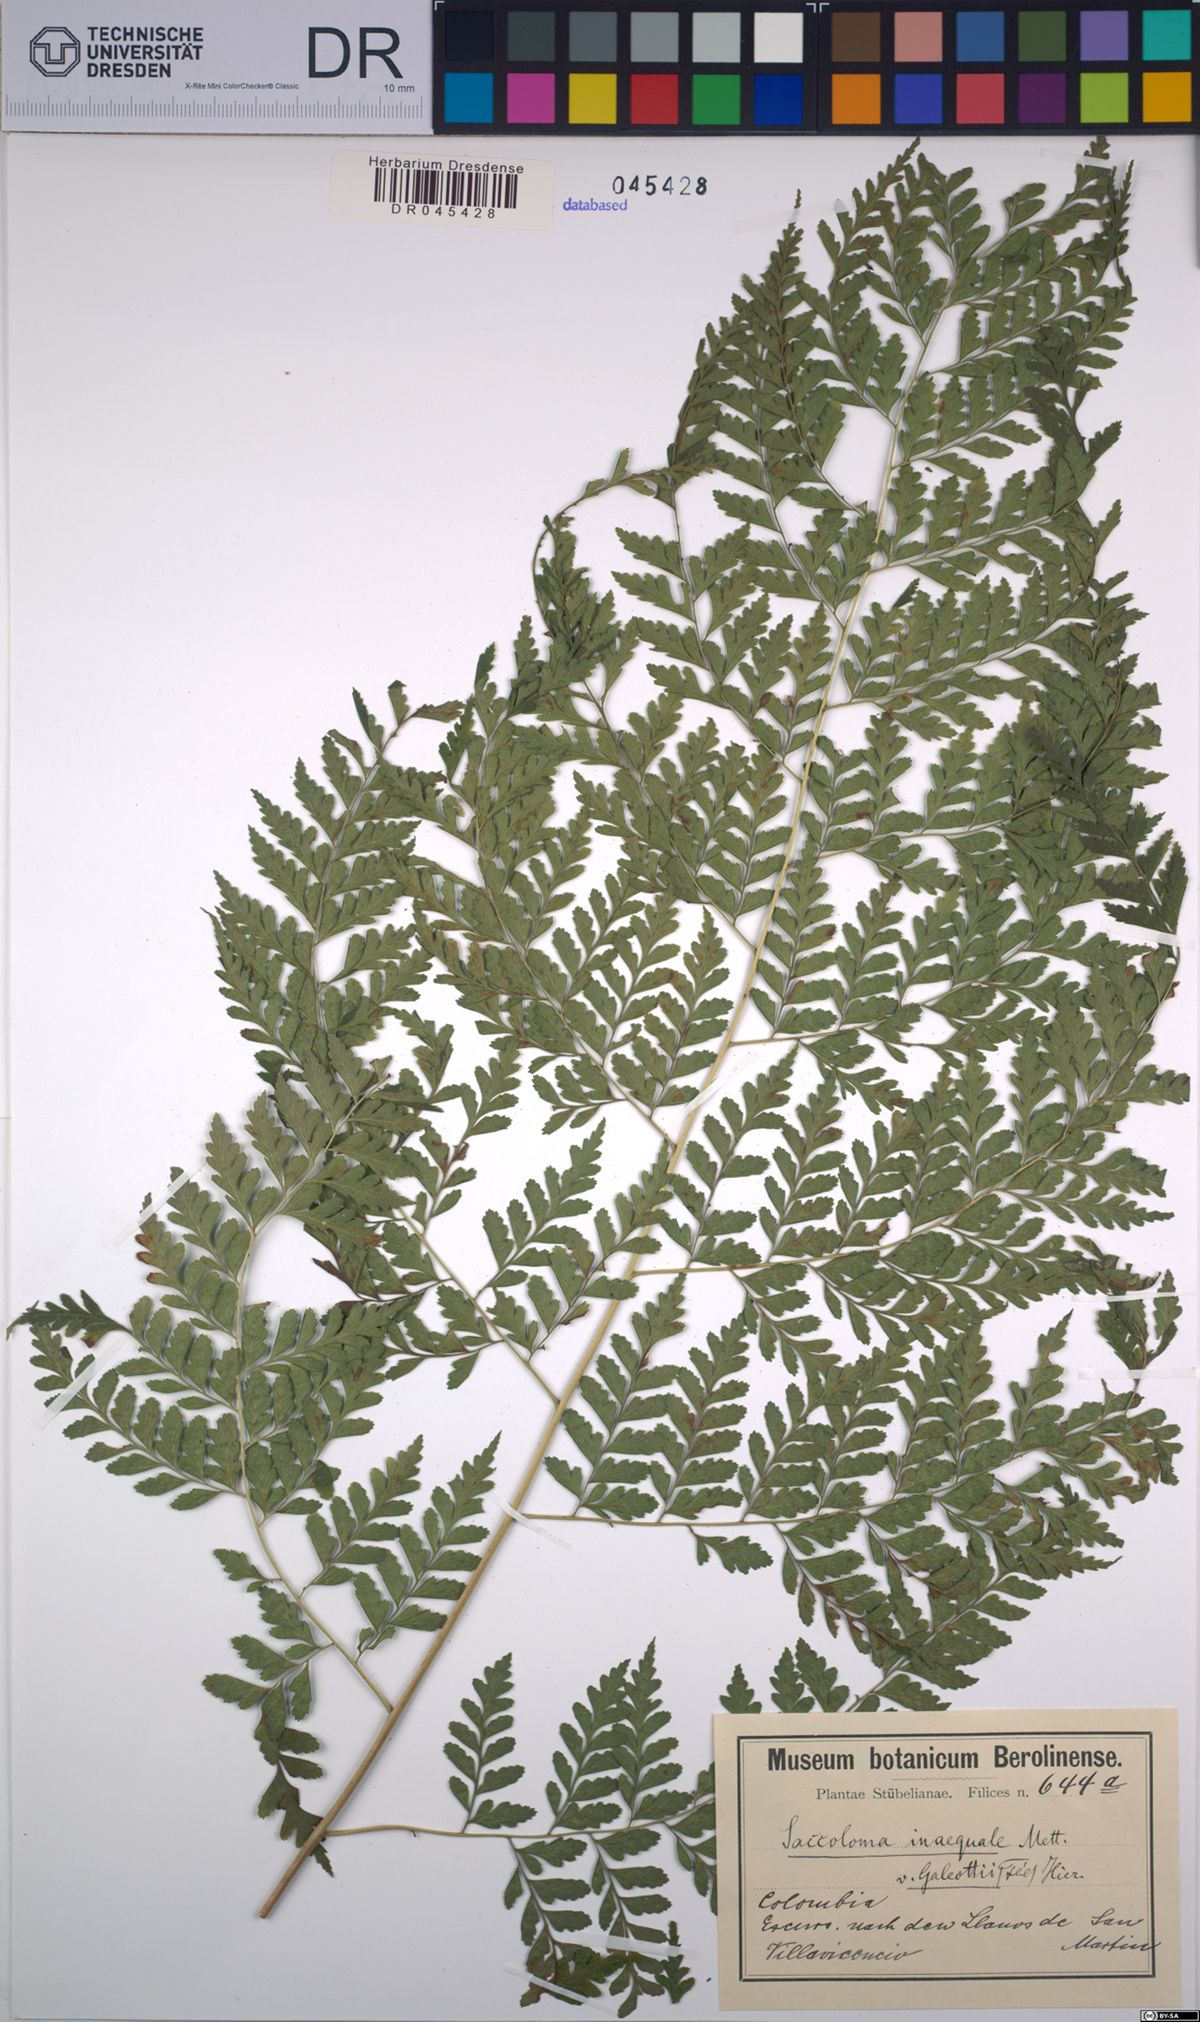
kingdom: Plantae
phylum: Tracheophyta
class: Polypodiopsida
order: Polypodiales
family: Saccolomataceae
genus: Saccoloma
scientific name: Saccoloma inaequale
